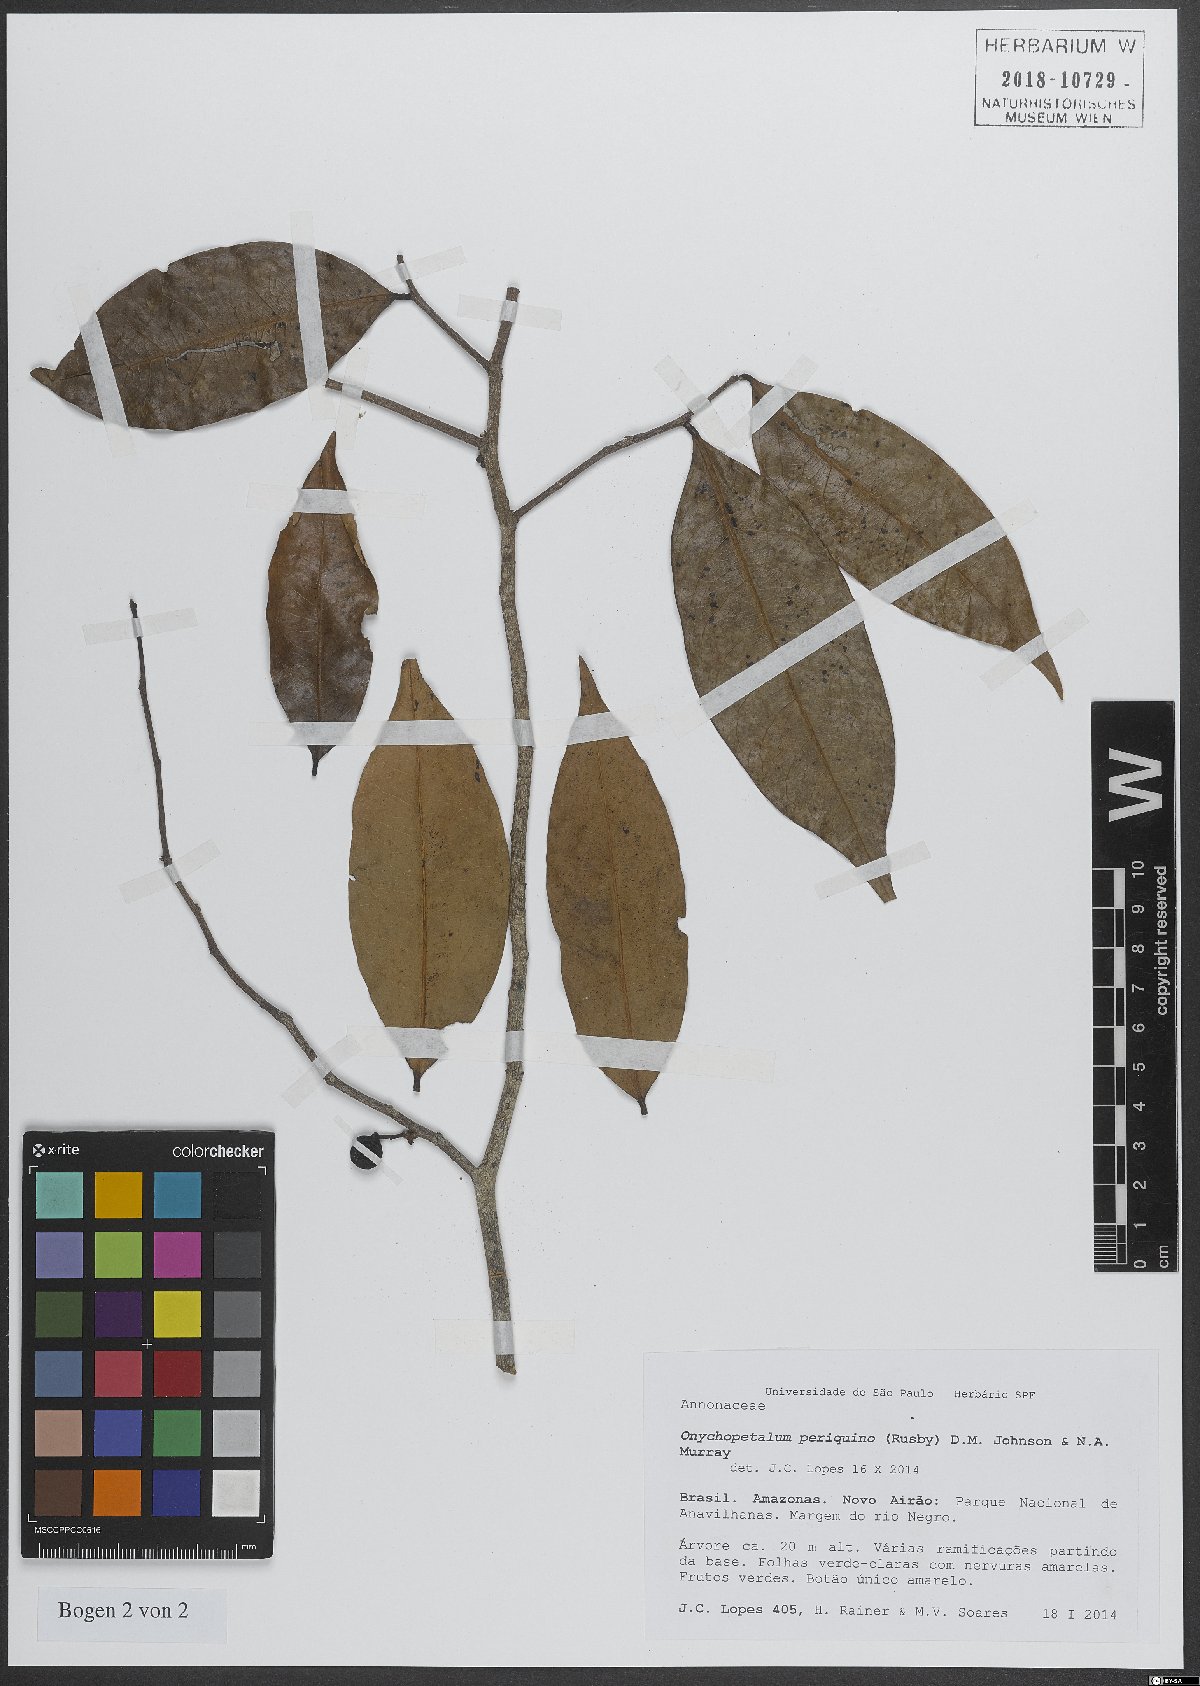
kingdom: Plantae
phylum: Tracheophyta
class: Magnoliopsida
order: Magnoliales
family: Annonaceae
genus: Onychopetalum
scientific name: Onychopetalum periquino
